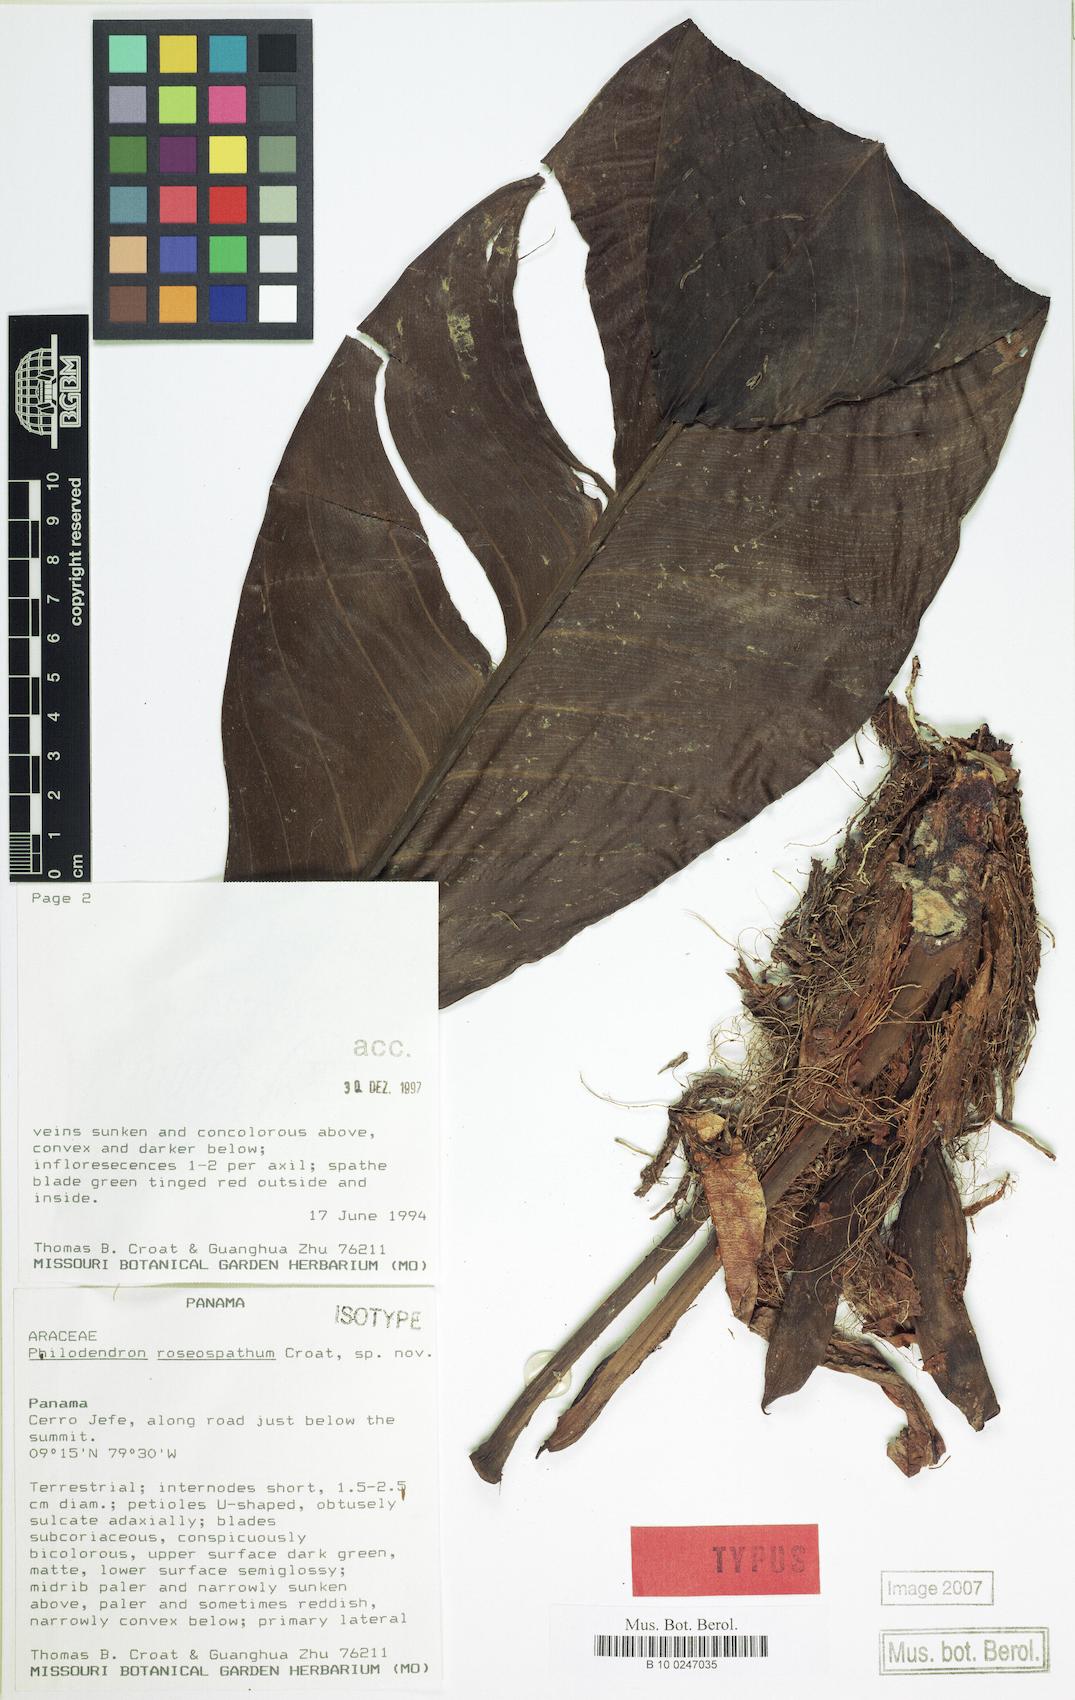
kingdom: Plantae
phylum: Tracheophyta
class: Liliopsida
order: Alismatales
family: Araceae
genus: Philodendron
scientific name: Philodendron roseospathum
